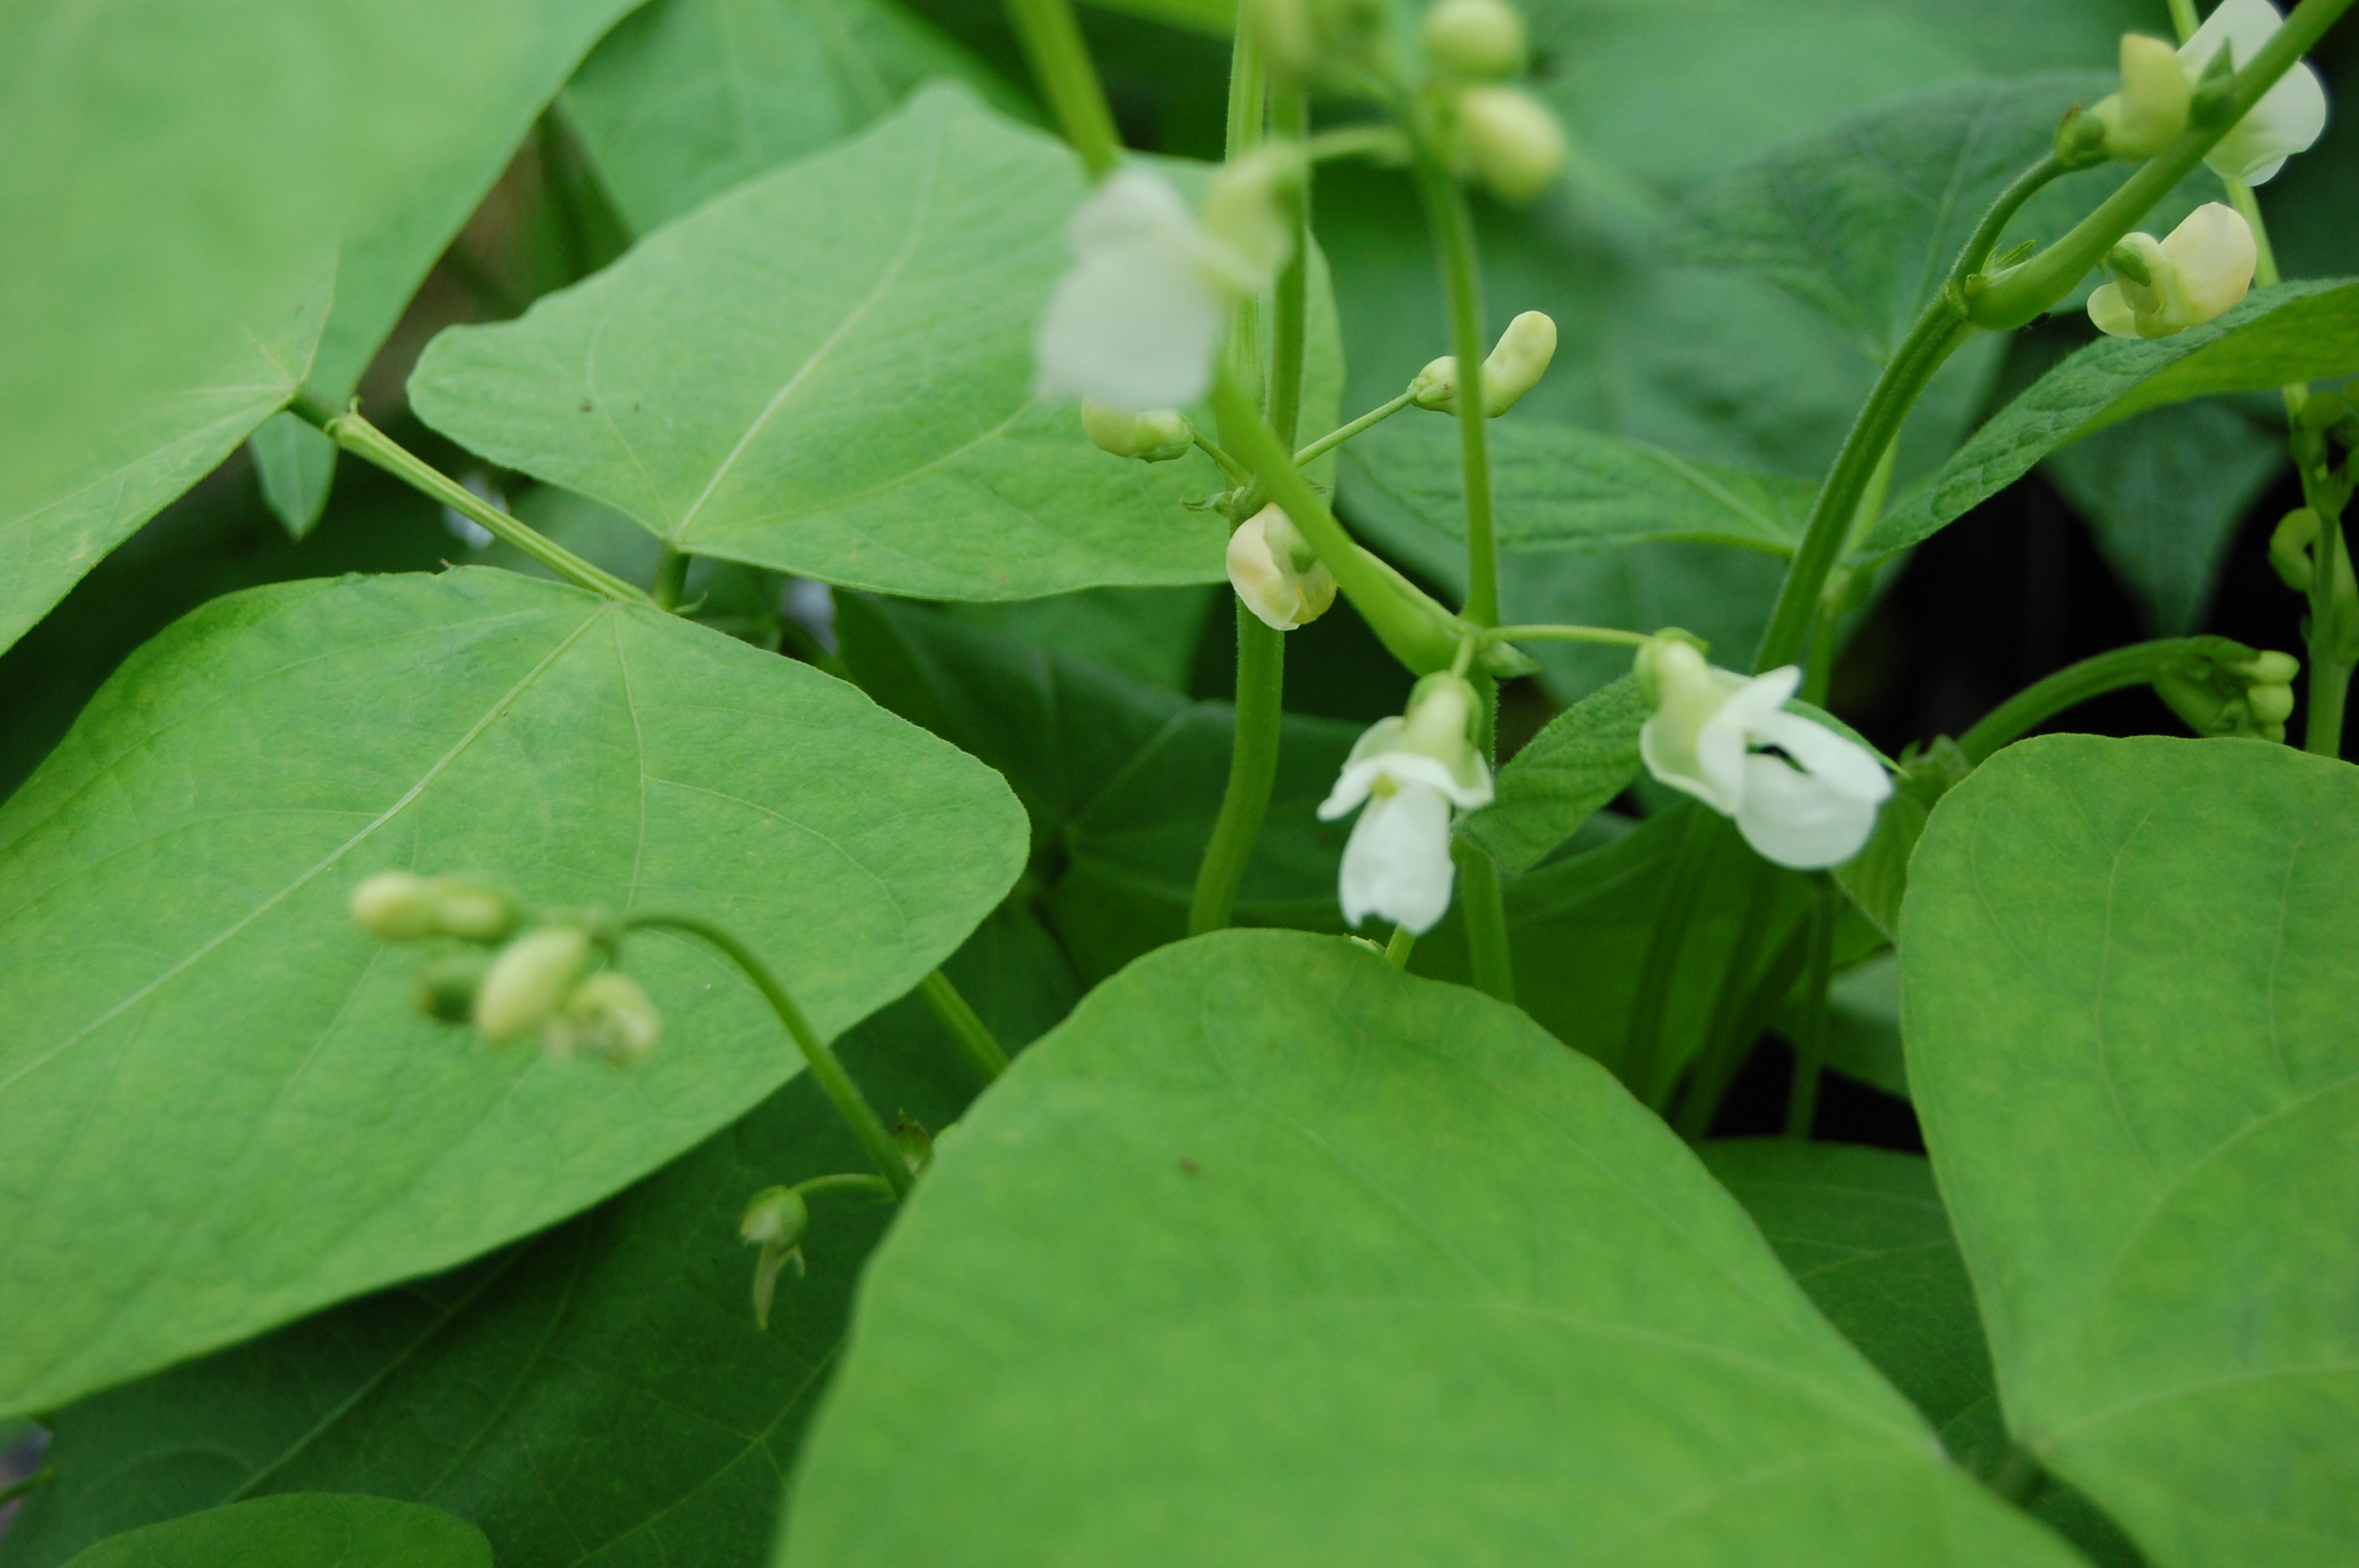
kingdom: Plantae
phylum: Tracheophyta
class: Magnoliopsida
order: Fabales
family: Fabaceae
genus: Phaseolus
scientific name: Phaseolus vulgaris
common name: Bean
